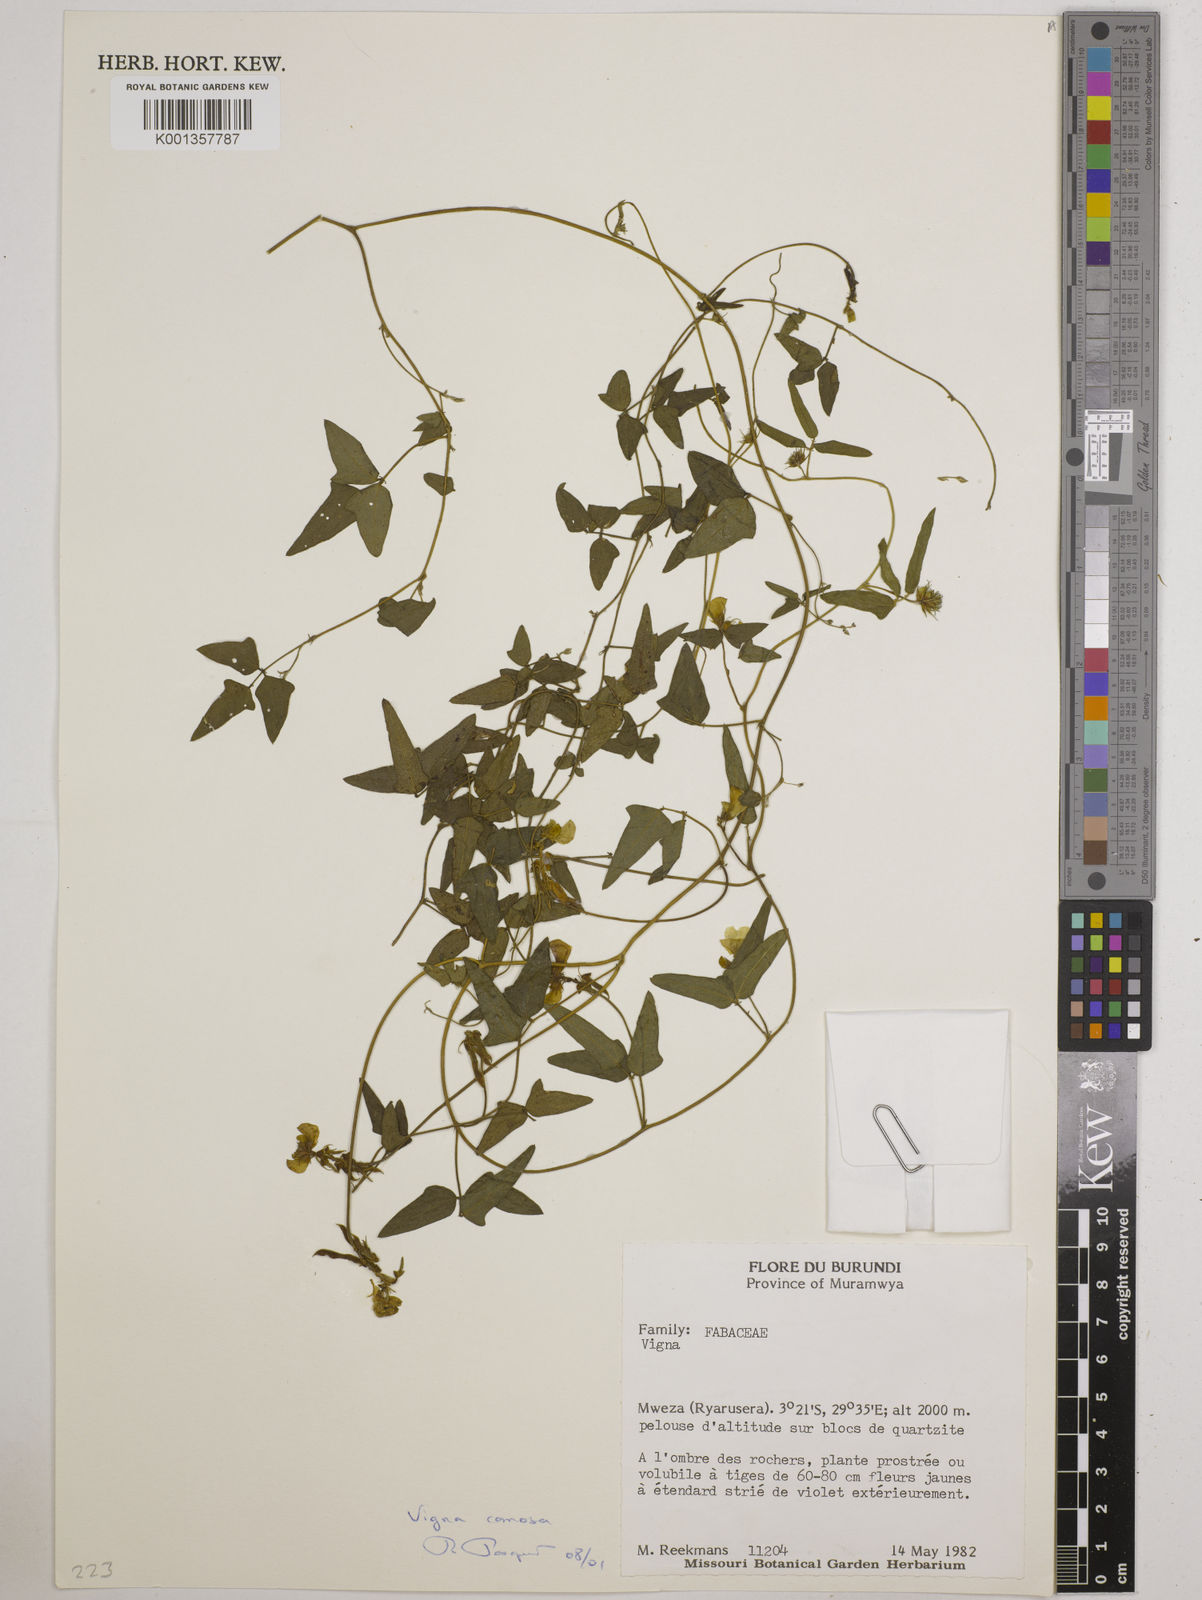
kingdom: Plantae
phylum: Tracheophyta
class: Magnoliopsida
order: Fabales
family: Fabaceae
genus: Vigna
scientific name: Vigna
